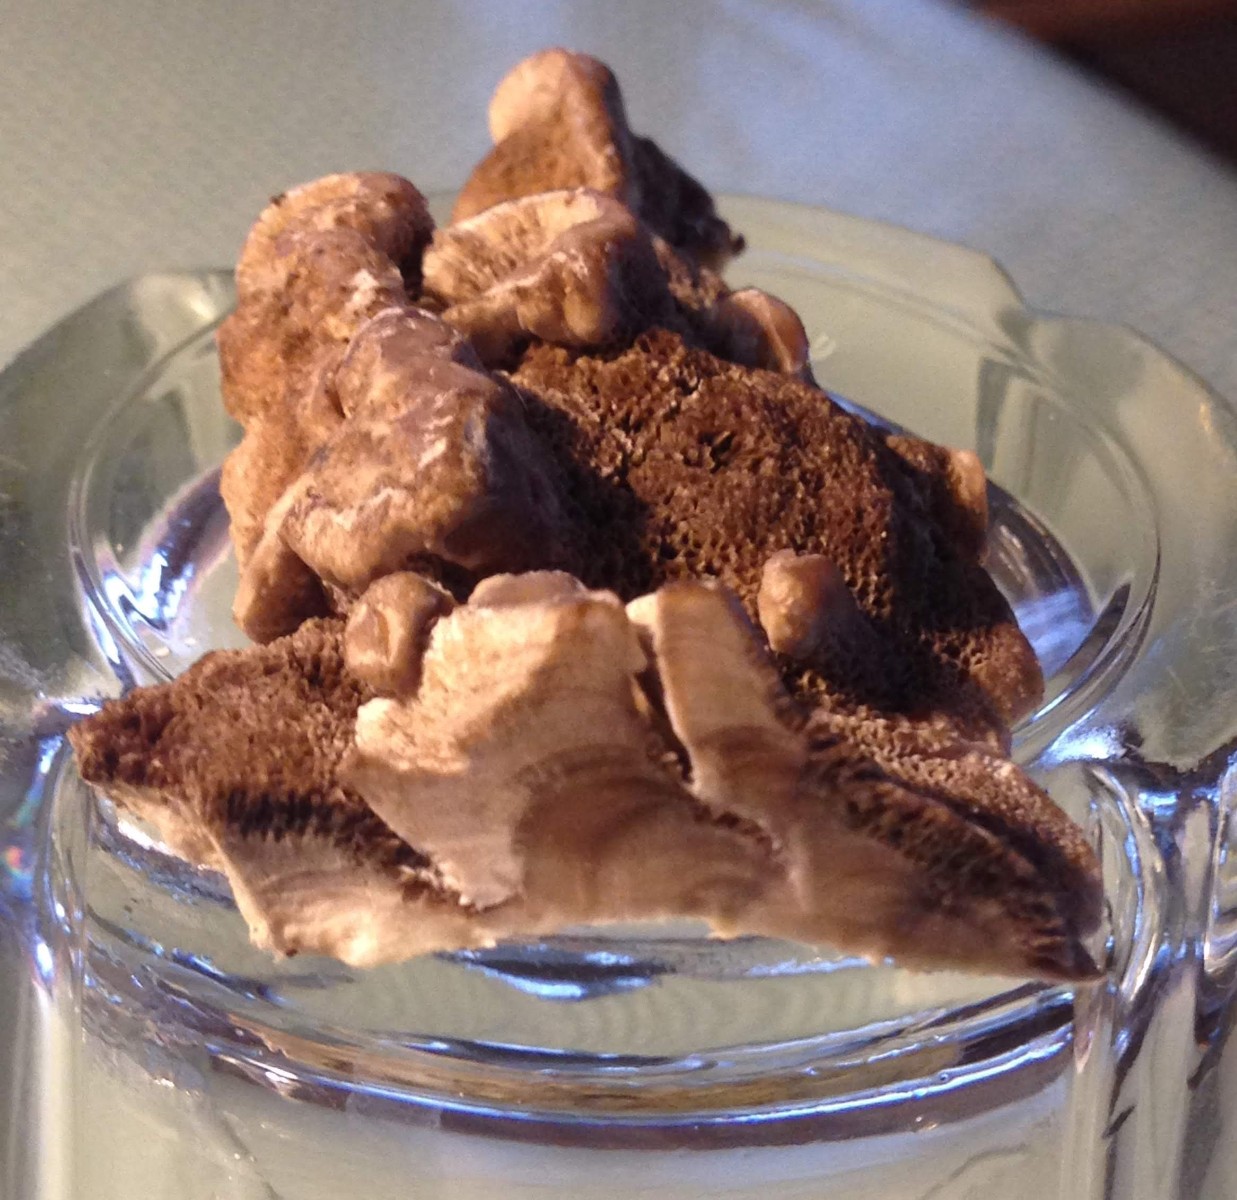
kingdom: Fungi
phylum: Basidiomycota
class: Agaricomycetes
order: Polyporales
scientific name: Polyporales
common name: poresvampordenen
